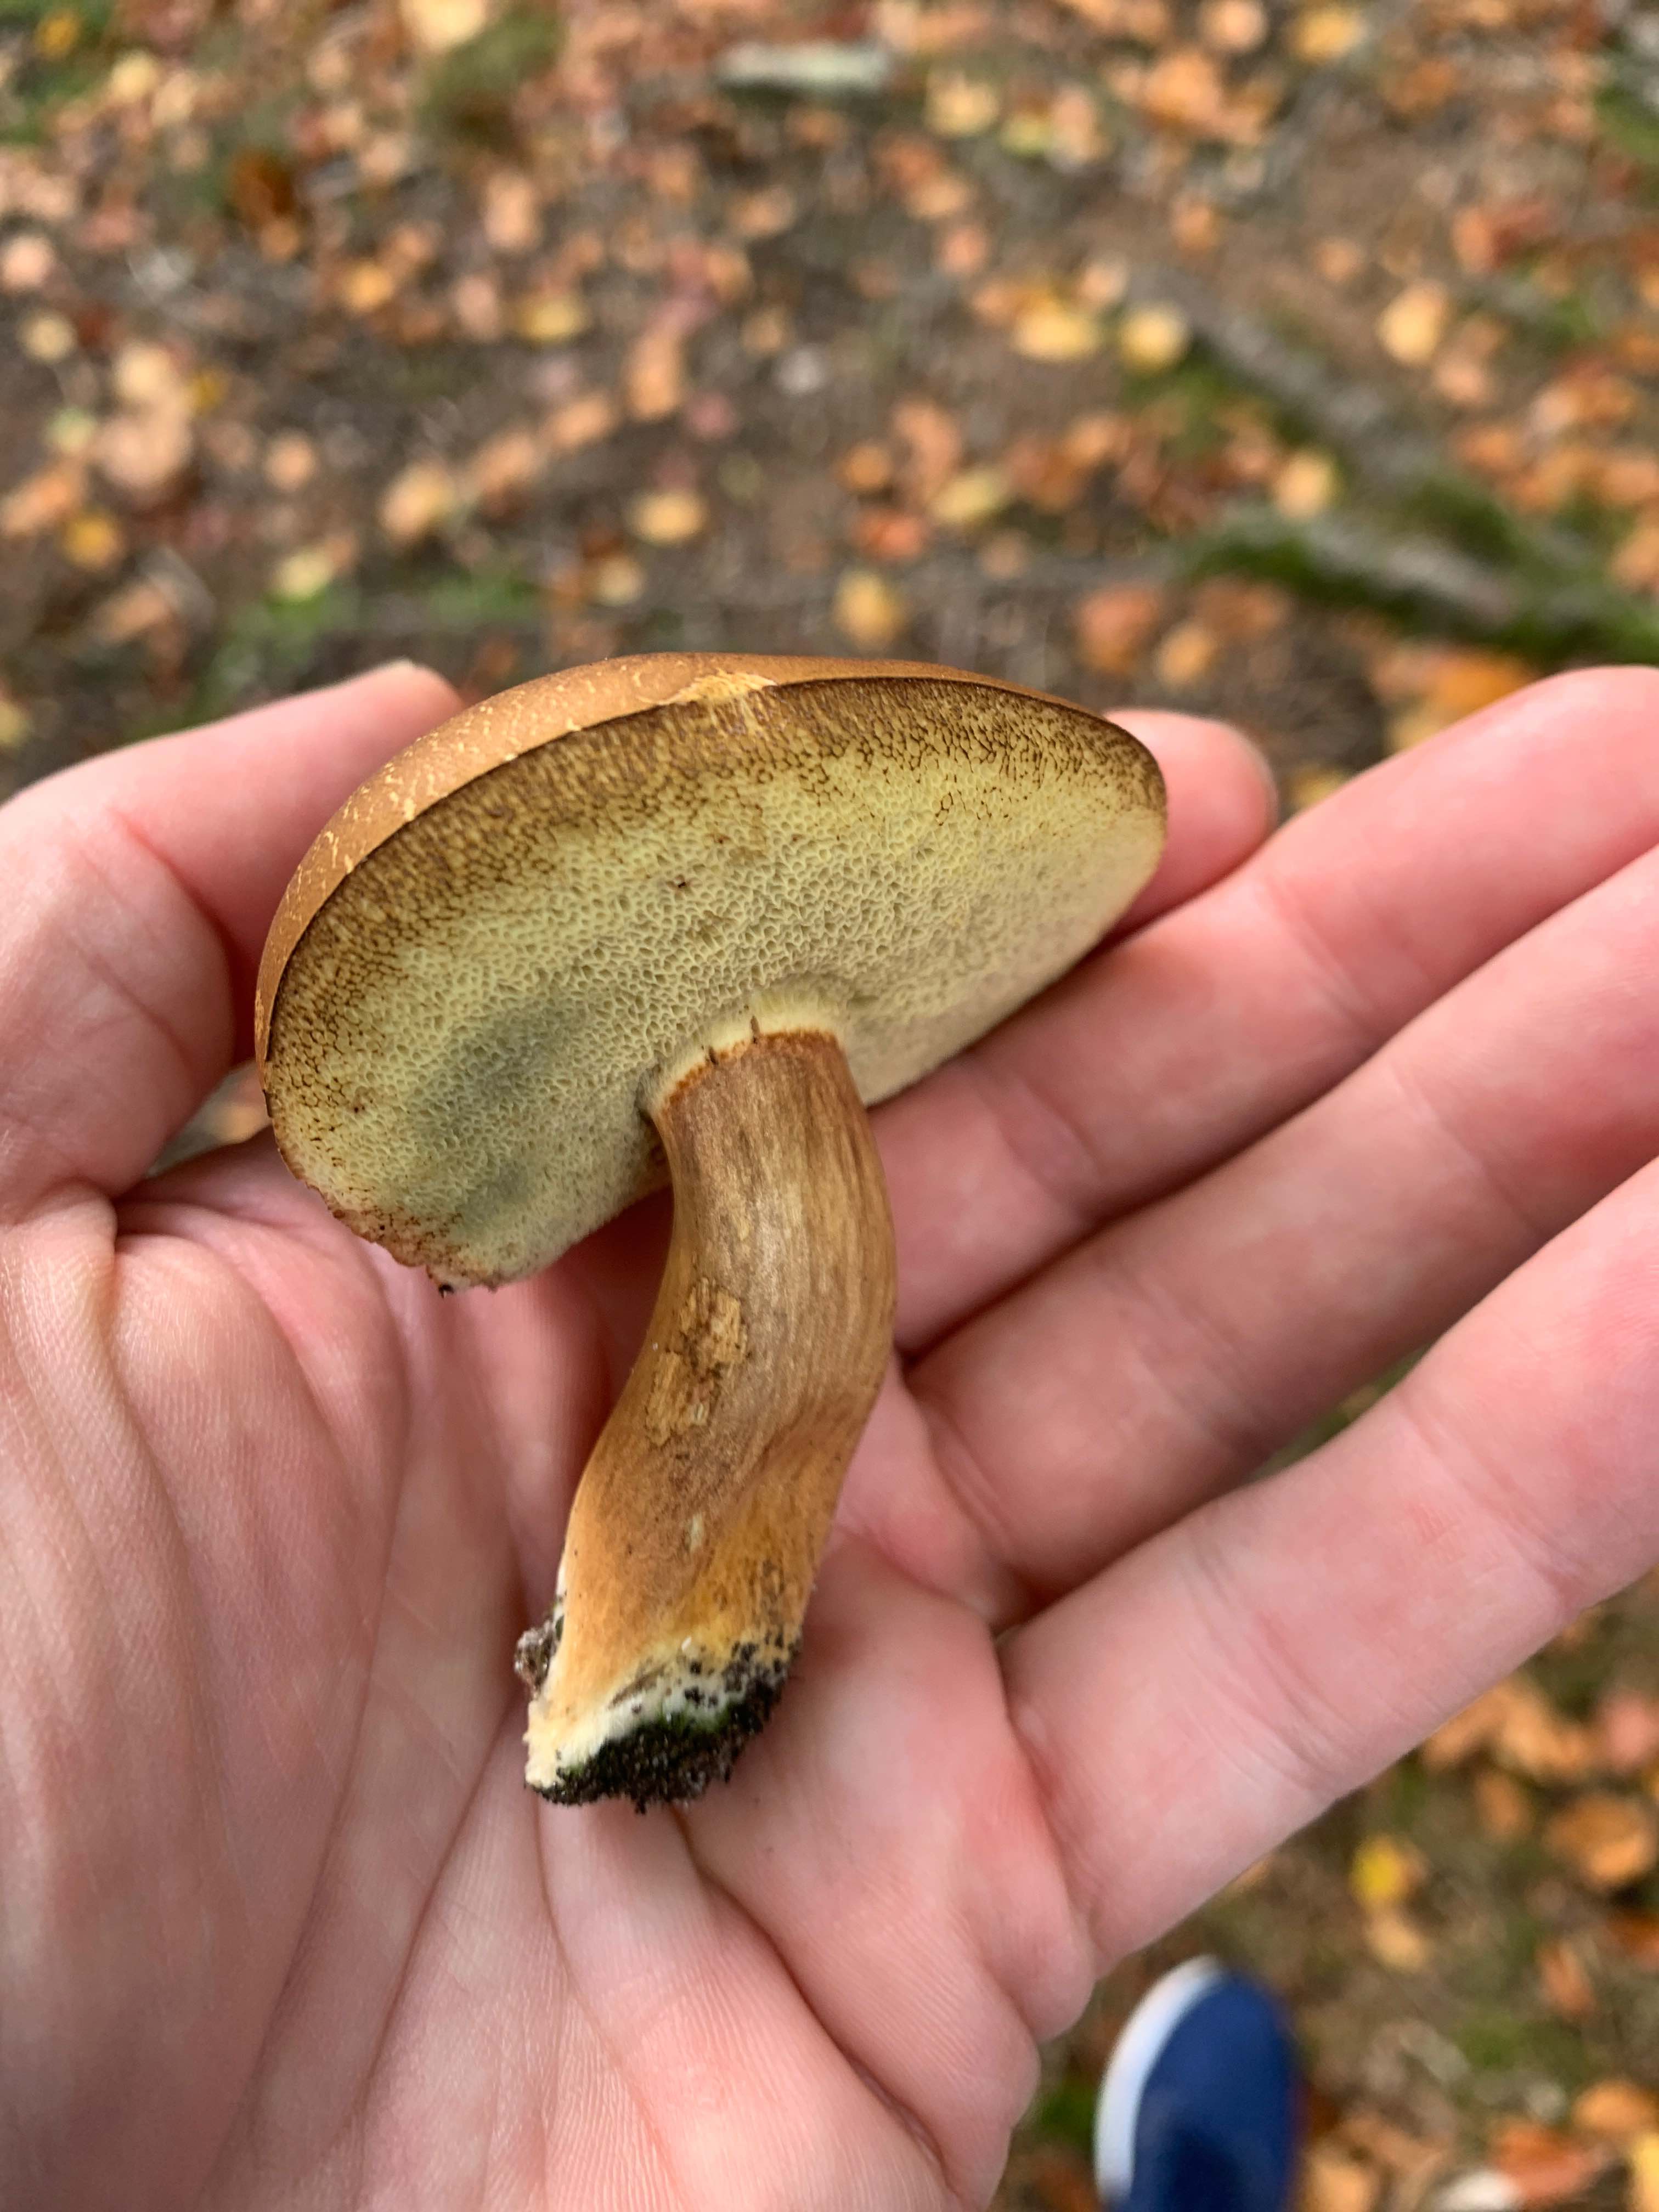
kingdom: Fungi
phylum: Basidiomycota
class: Agaricomycetes
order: Boletales
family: Boletaceae
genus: Imleria
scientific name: Imleria badia
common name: brunstokket rørhat
